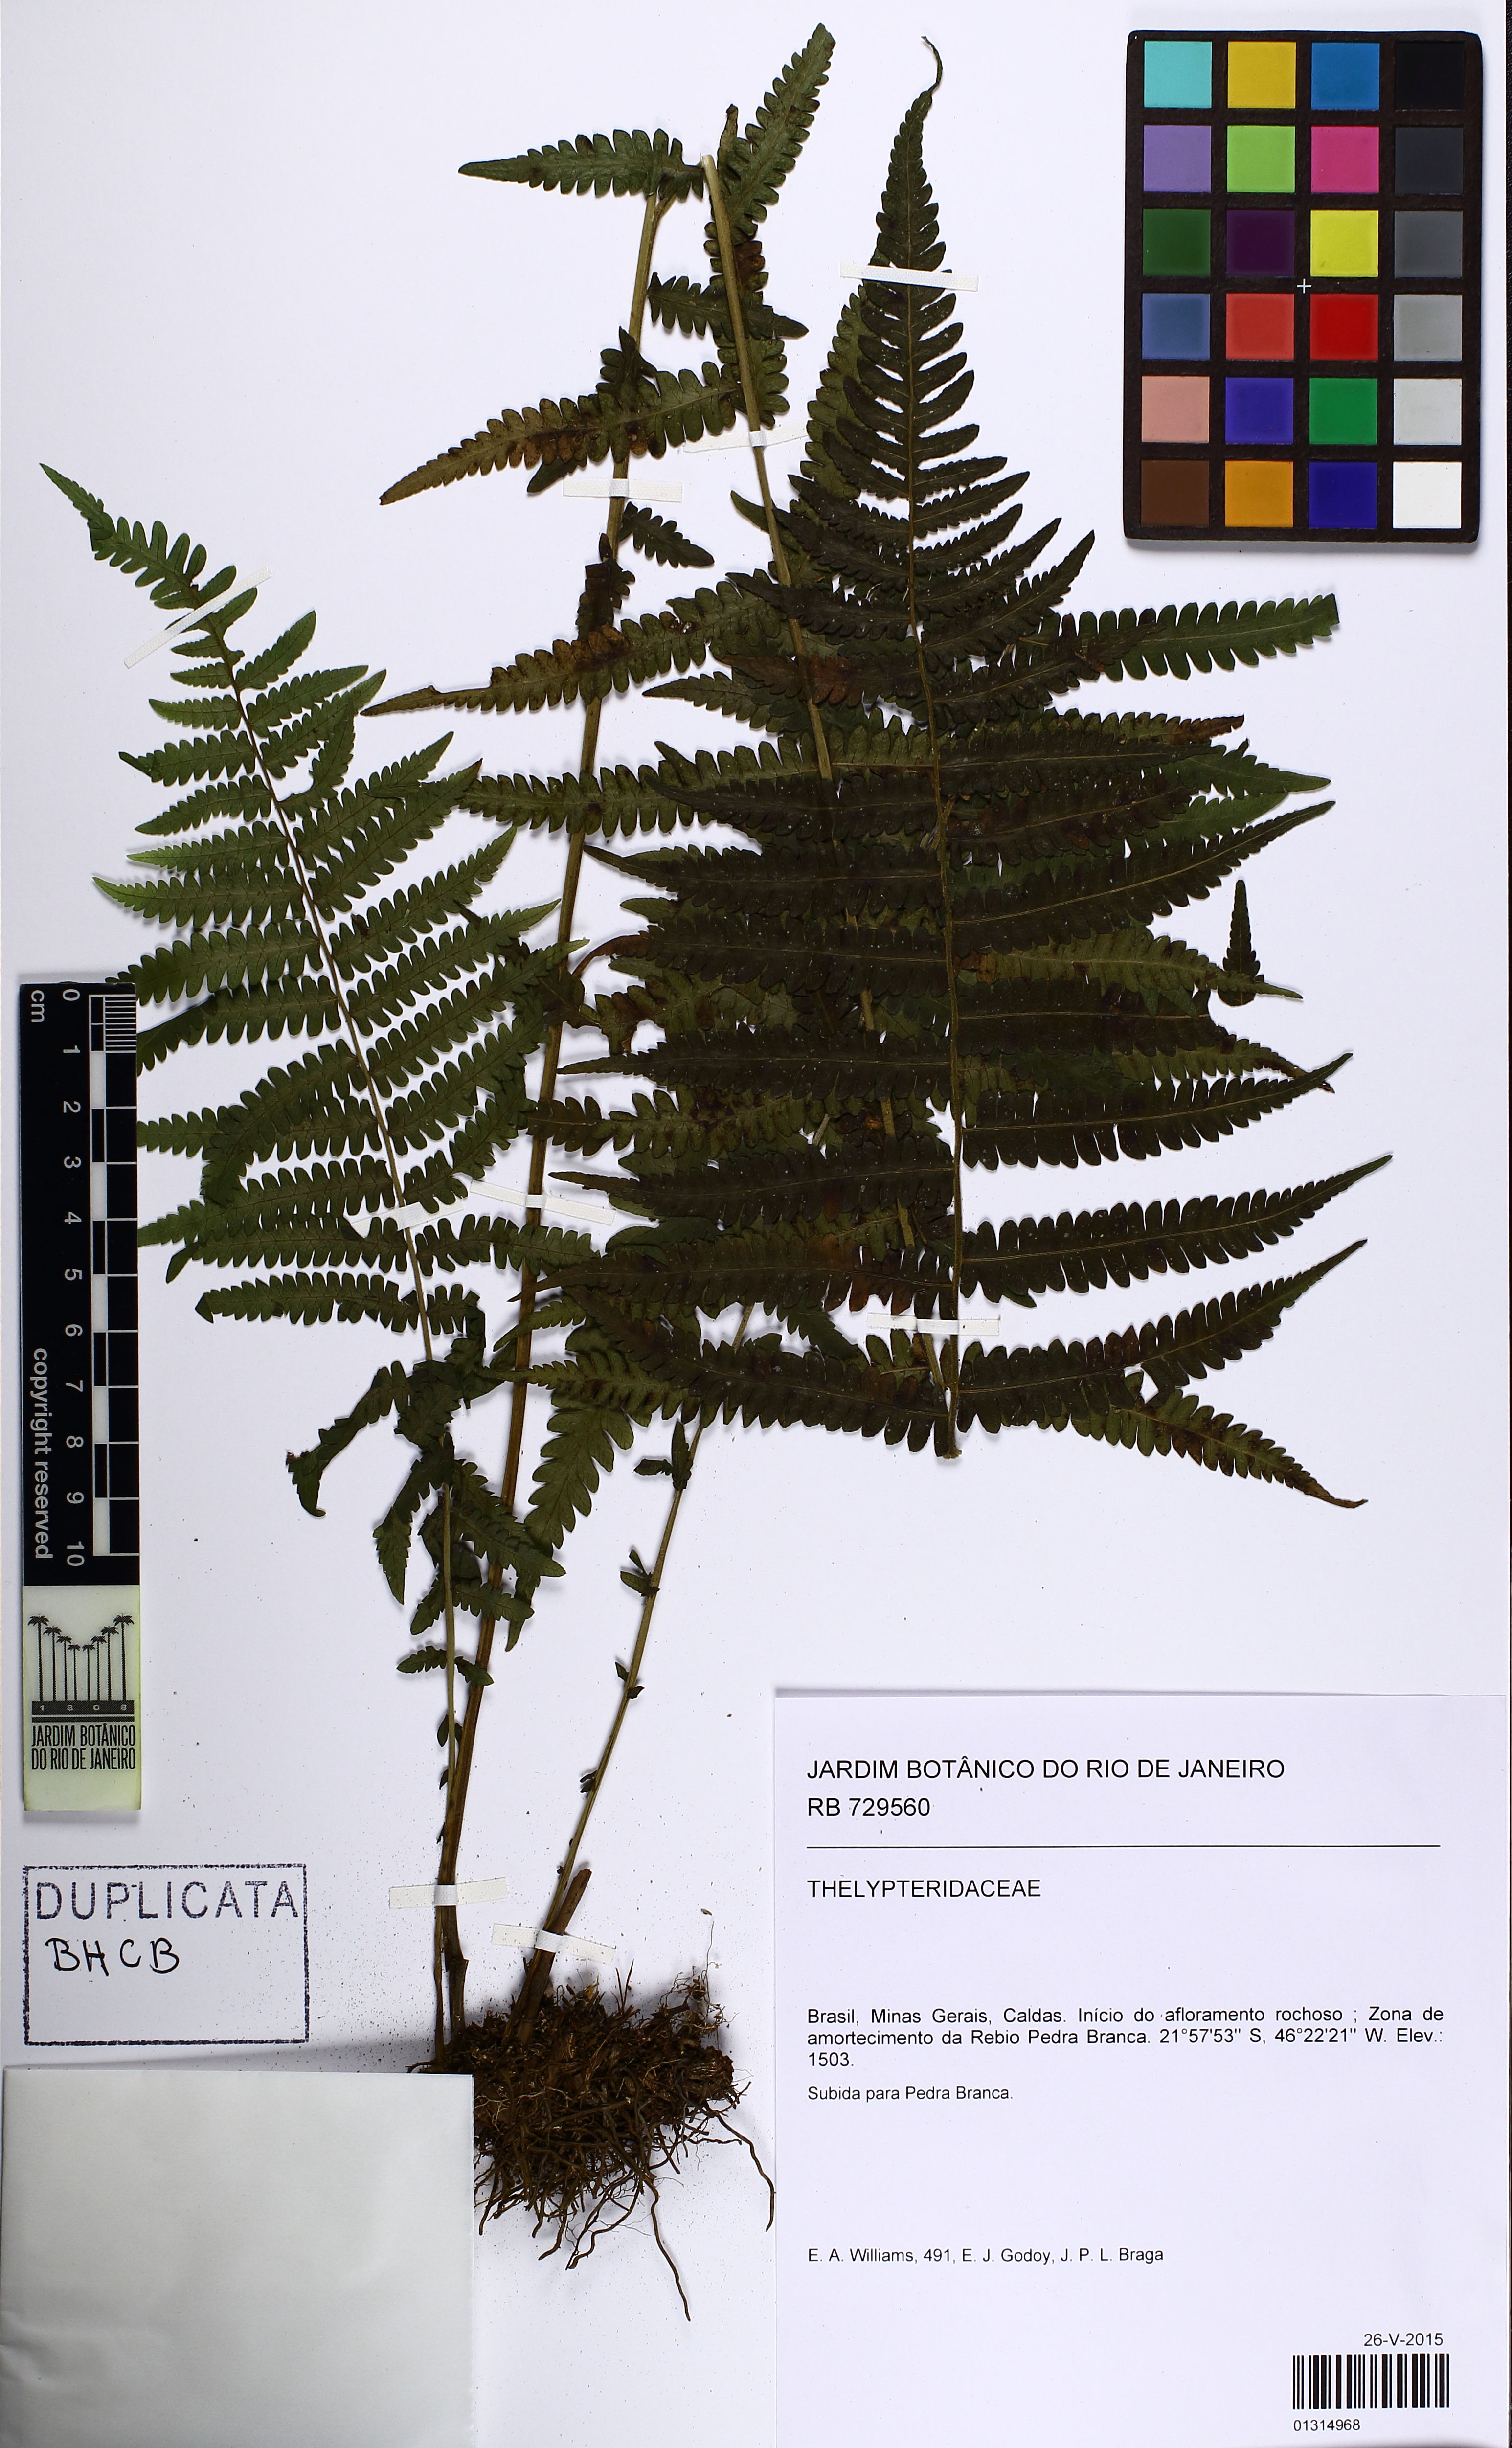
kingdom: Plantae
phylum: Tracheophyta
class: Polypodiopsida
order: Polypodiales
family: Thelypteridaceae
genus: Amauropelta
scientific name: Amauropelta
